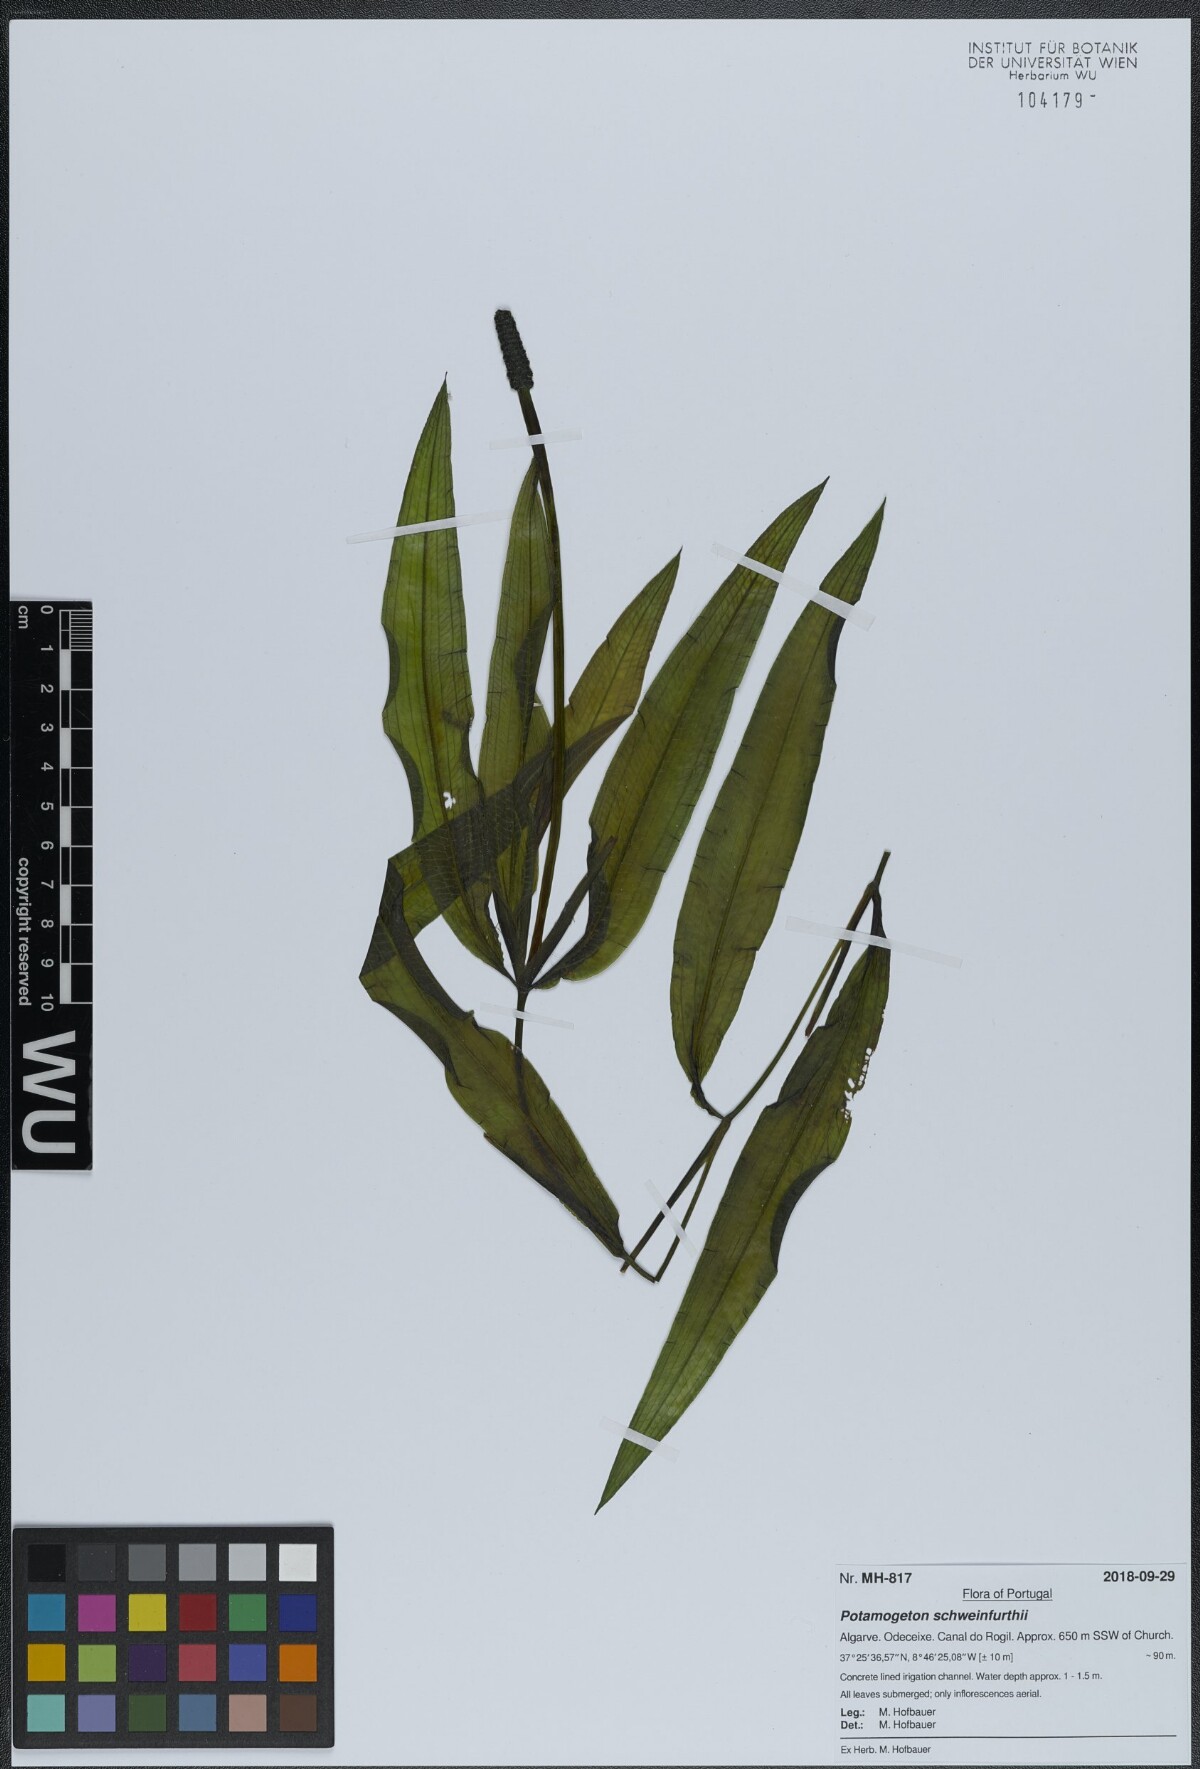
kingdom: Plantae
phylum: Tracheophyta
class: Liliopsida
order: Alismatales
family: Potamogetonaceae
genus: Potamogeton
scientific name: Potamogeton schweinfurthii
